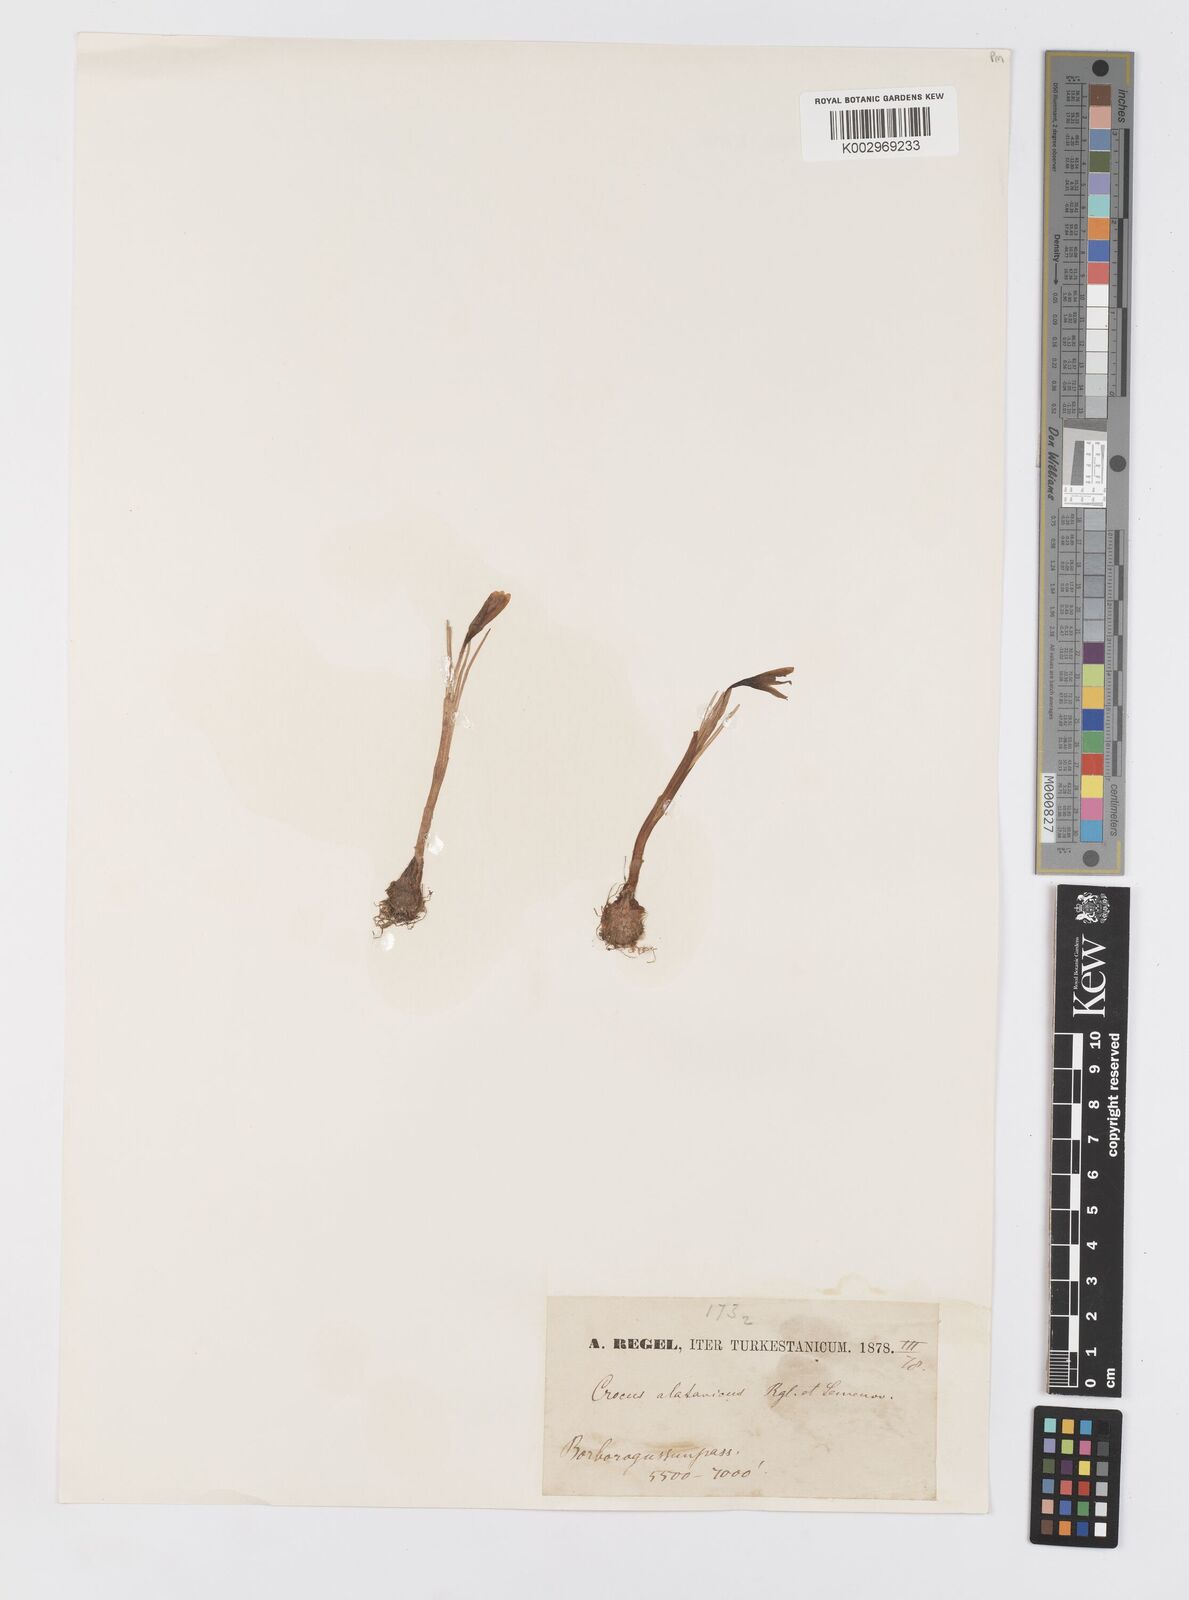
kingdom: Plantae
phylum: Tracheophyta
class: Liliopsida
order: Asparagales
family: Iridaceae
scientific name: Iridaceae
